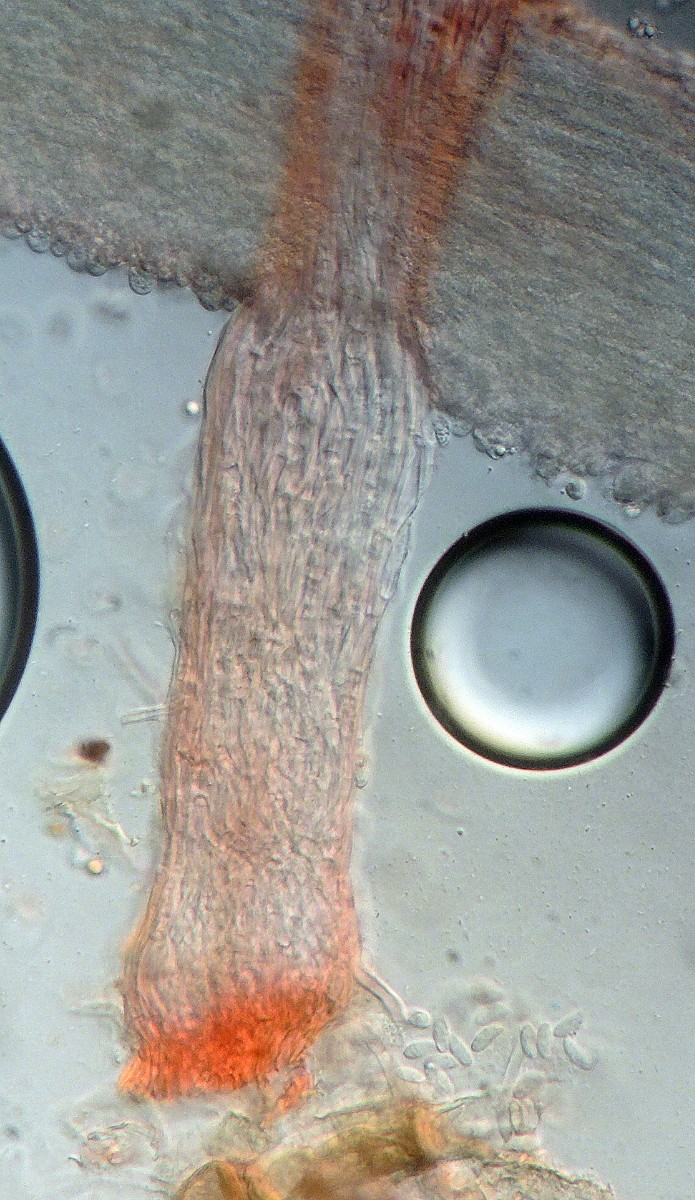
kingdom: Fungi
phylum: Basidiomycota
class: Agaricomycetes
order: Hymenochaetales
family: Rickenellaceae
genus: Bryopistillaria
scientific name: Bryopistillaria sagittiformis
